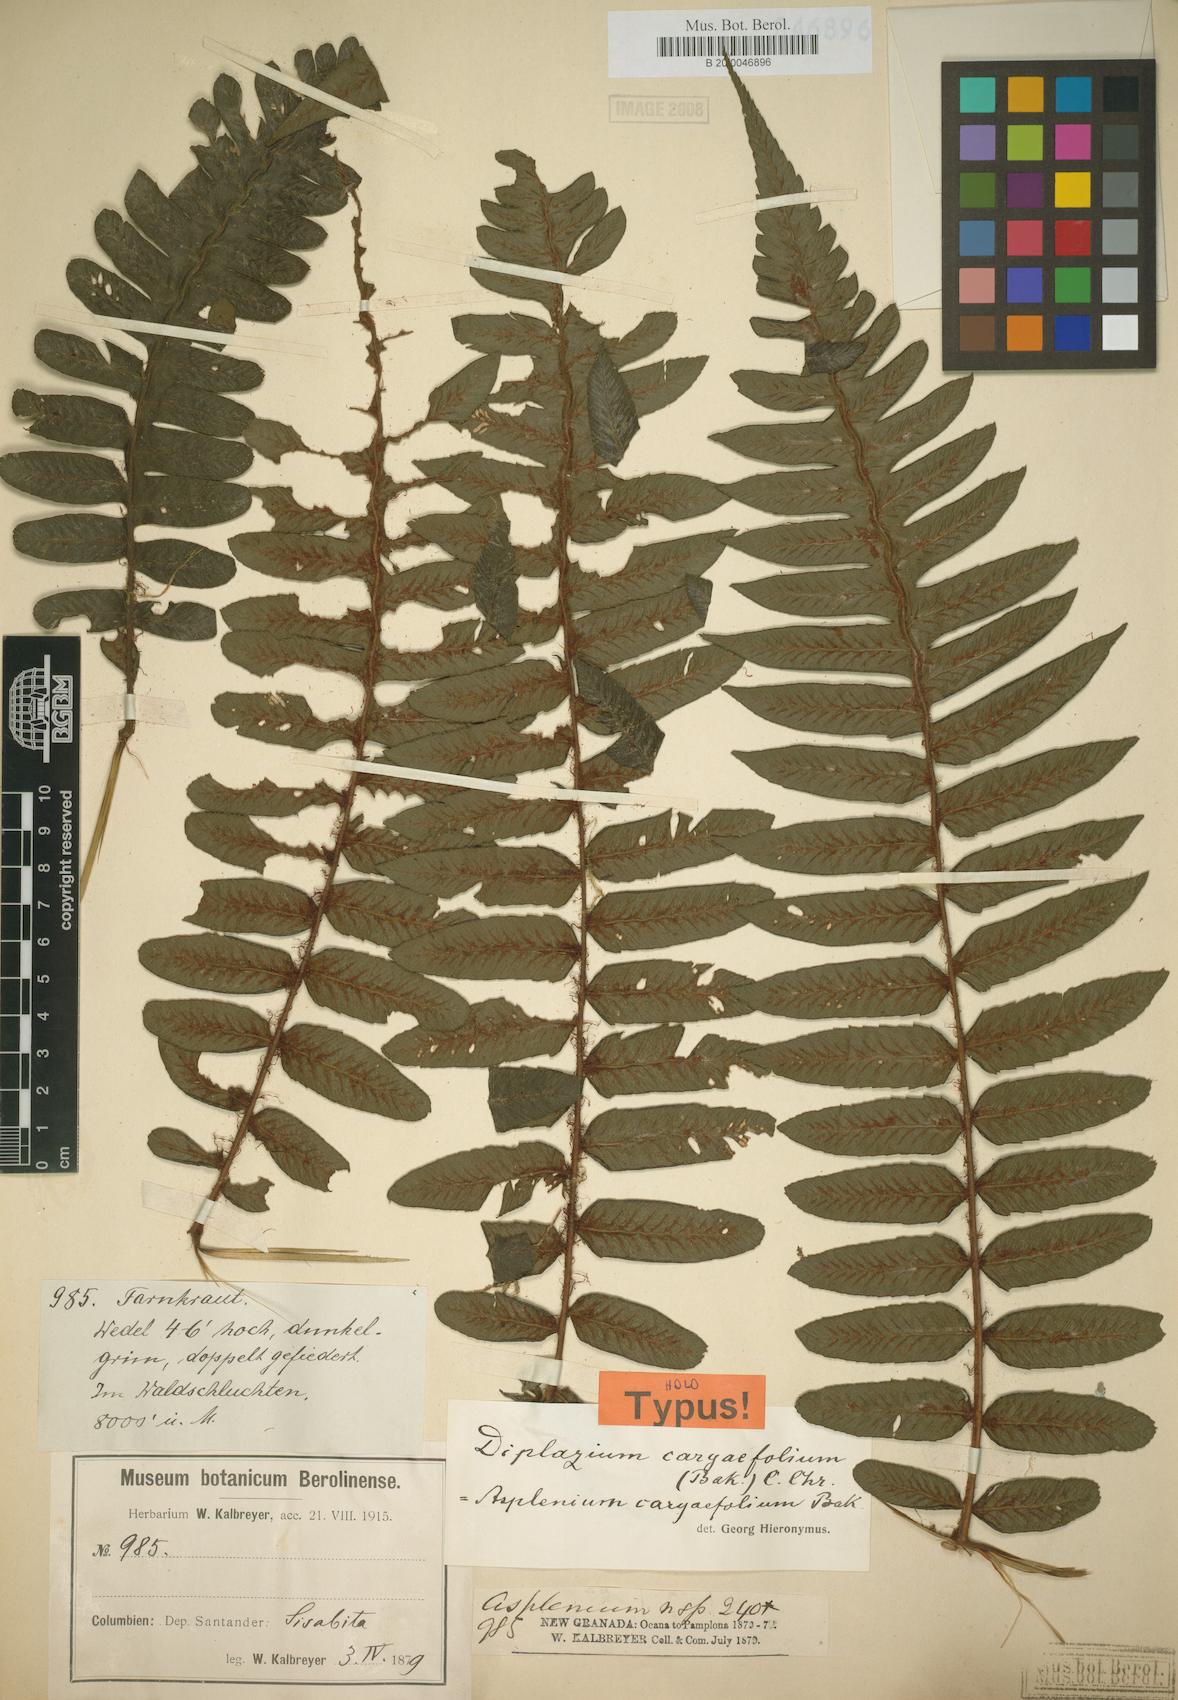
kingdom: Plantae
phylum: Tracheophyta
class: Polypodiopsida
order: Polypodiales
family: Athyriaceae
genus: Diplazium
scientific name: Diplazium nervosum
